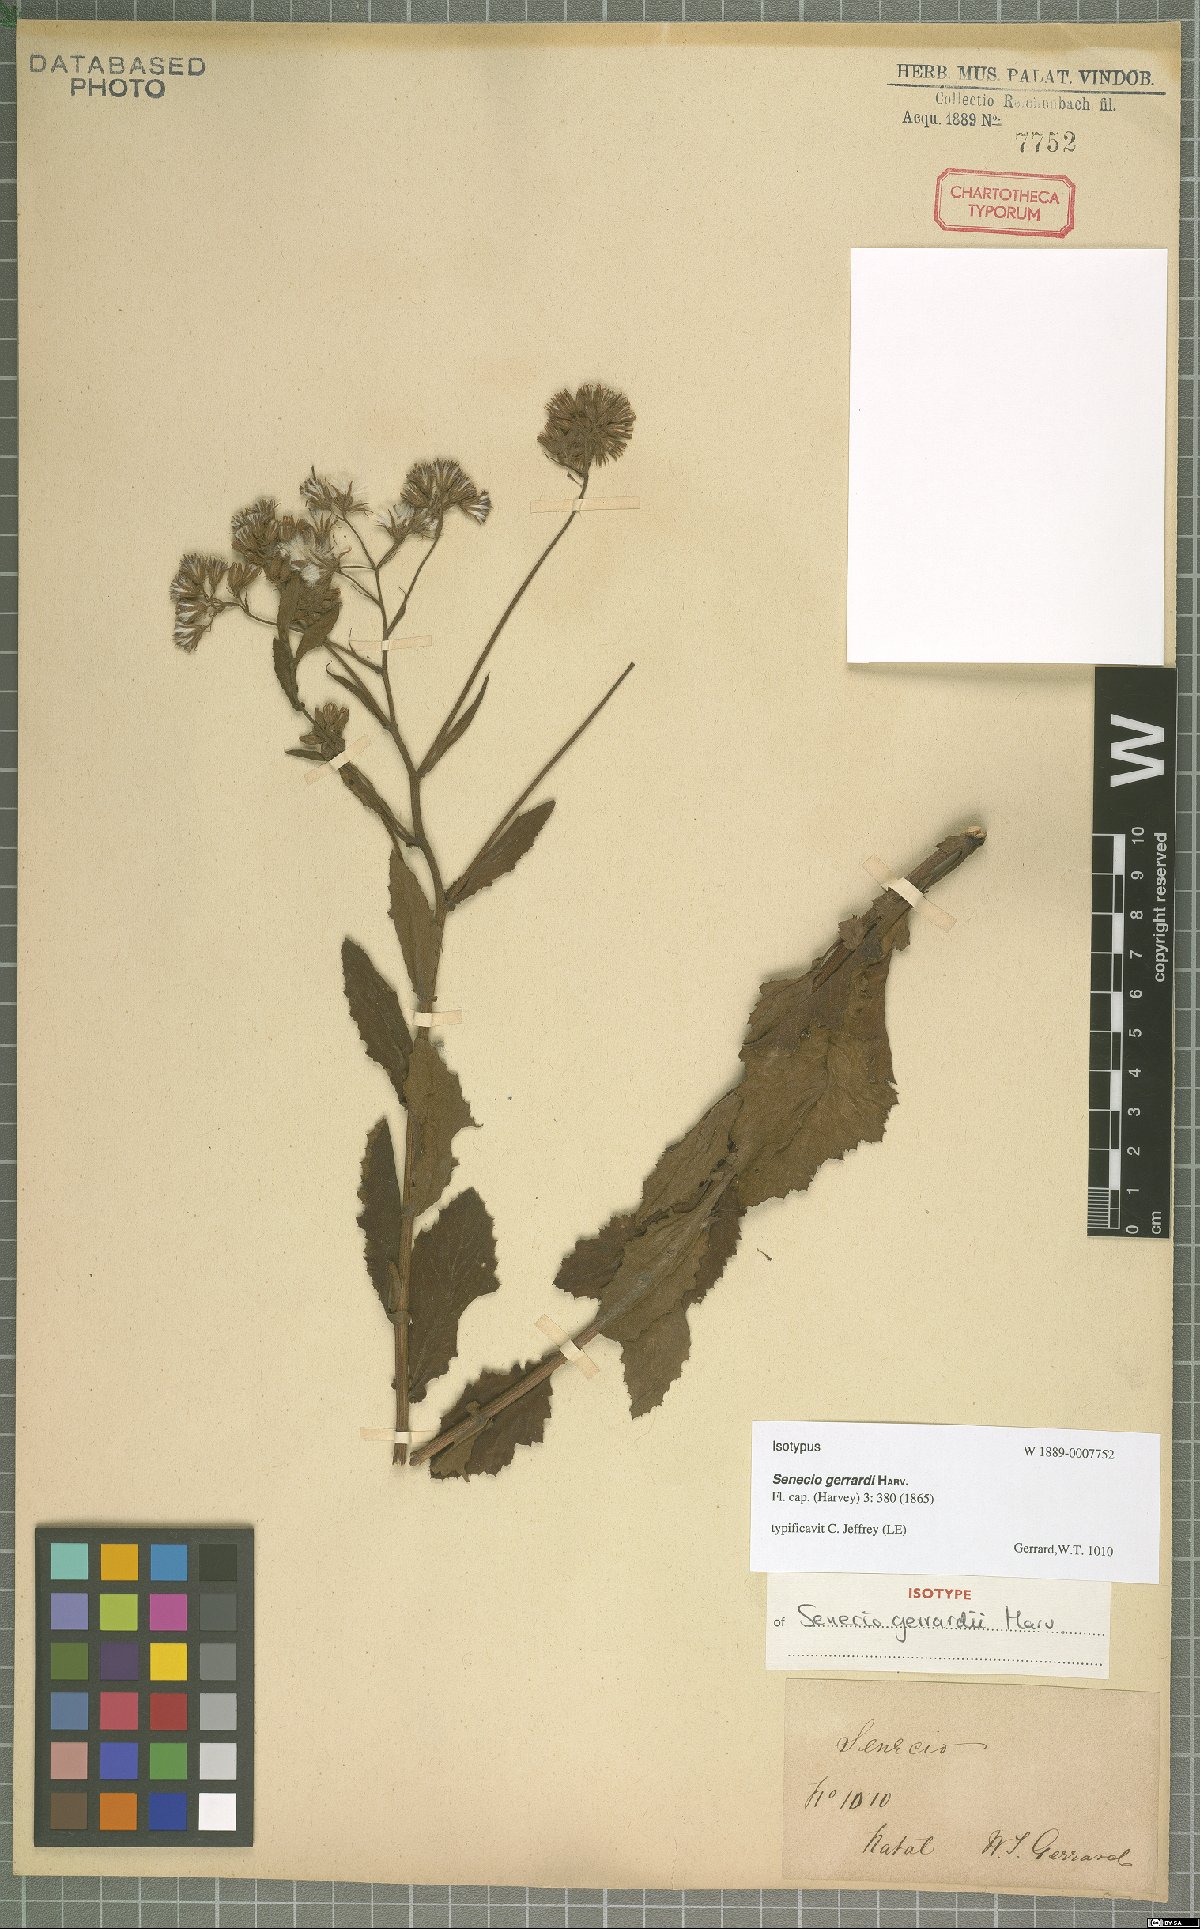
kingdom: Plantae
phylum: Tracheophyta
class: Magnoliopsida
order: Asterales
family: Asteraceae
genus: Senecio
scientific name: Senecio gerrardii
